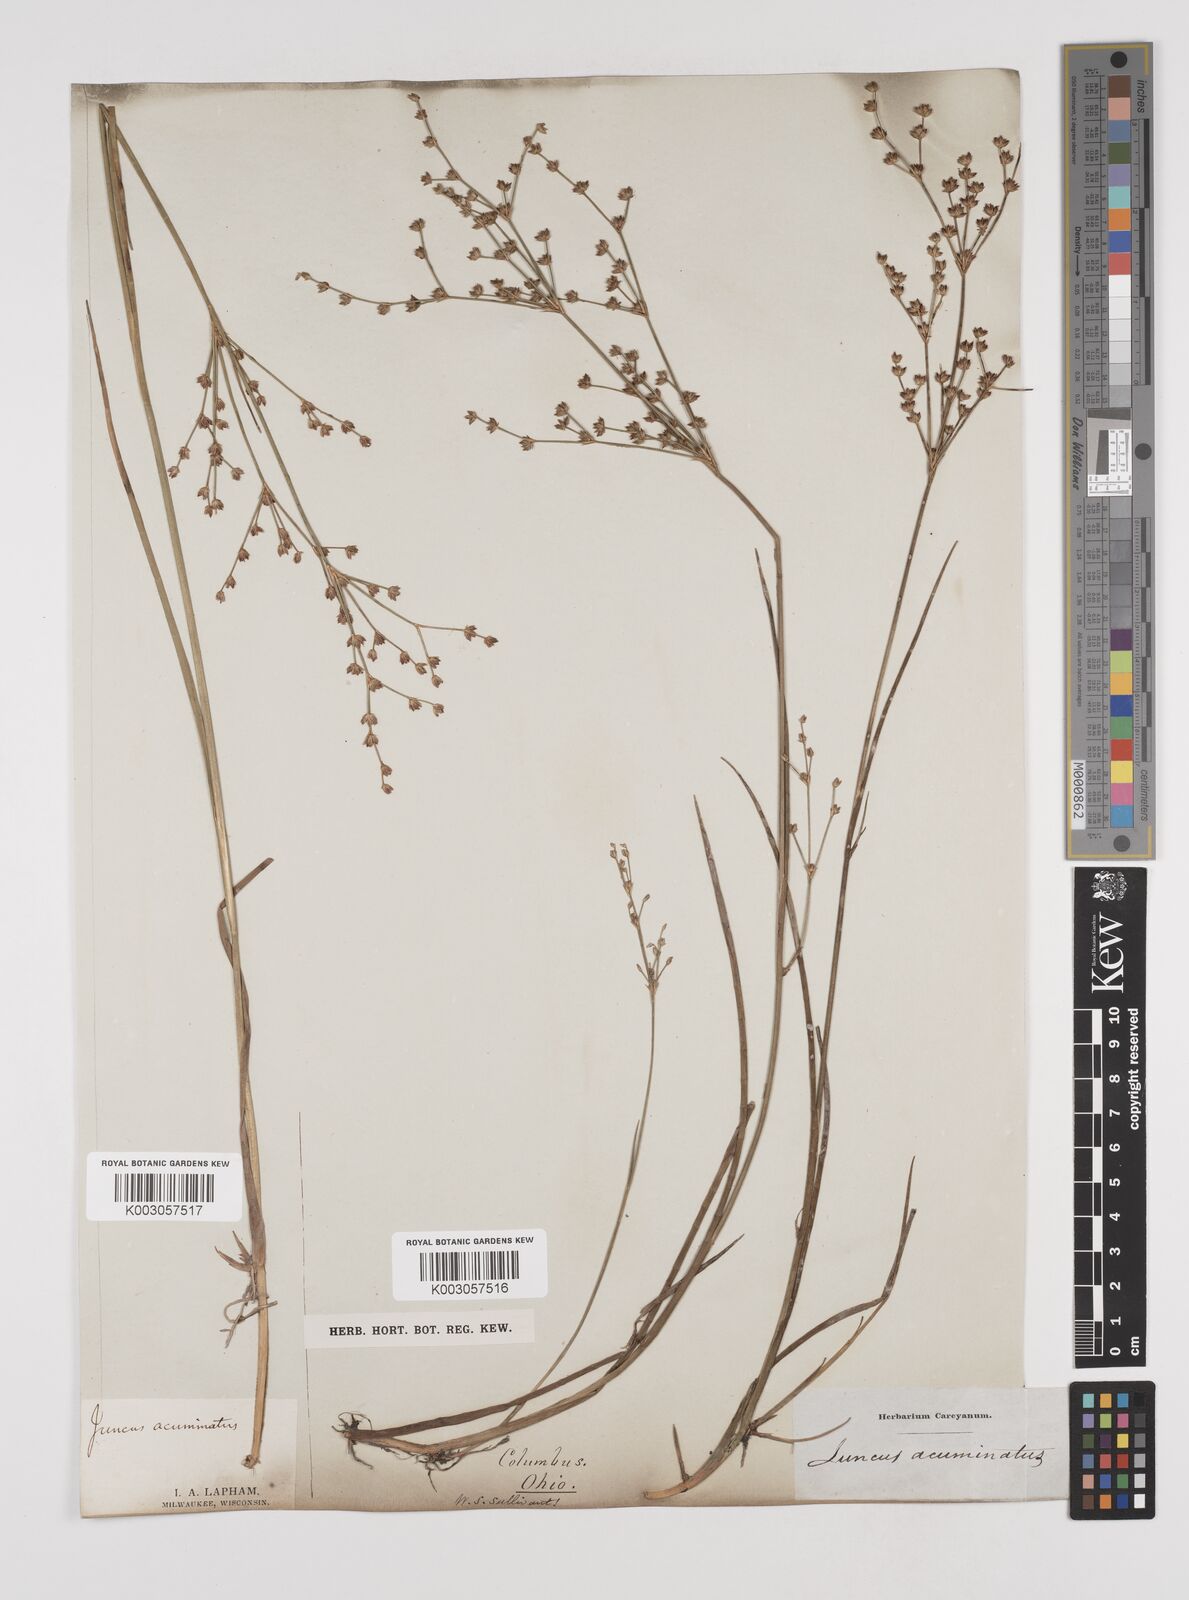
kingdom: Plantae
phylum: Tracheophyta
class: Liliopsida
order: Poales
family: Juncaceae
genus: Juncus
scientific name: Juncus debilis
